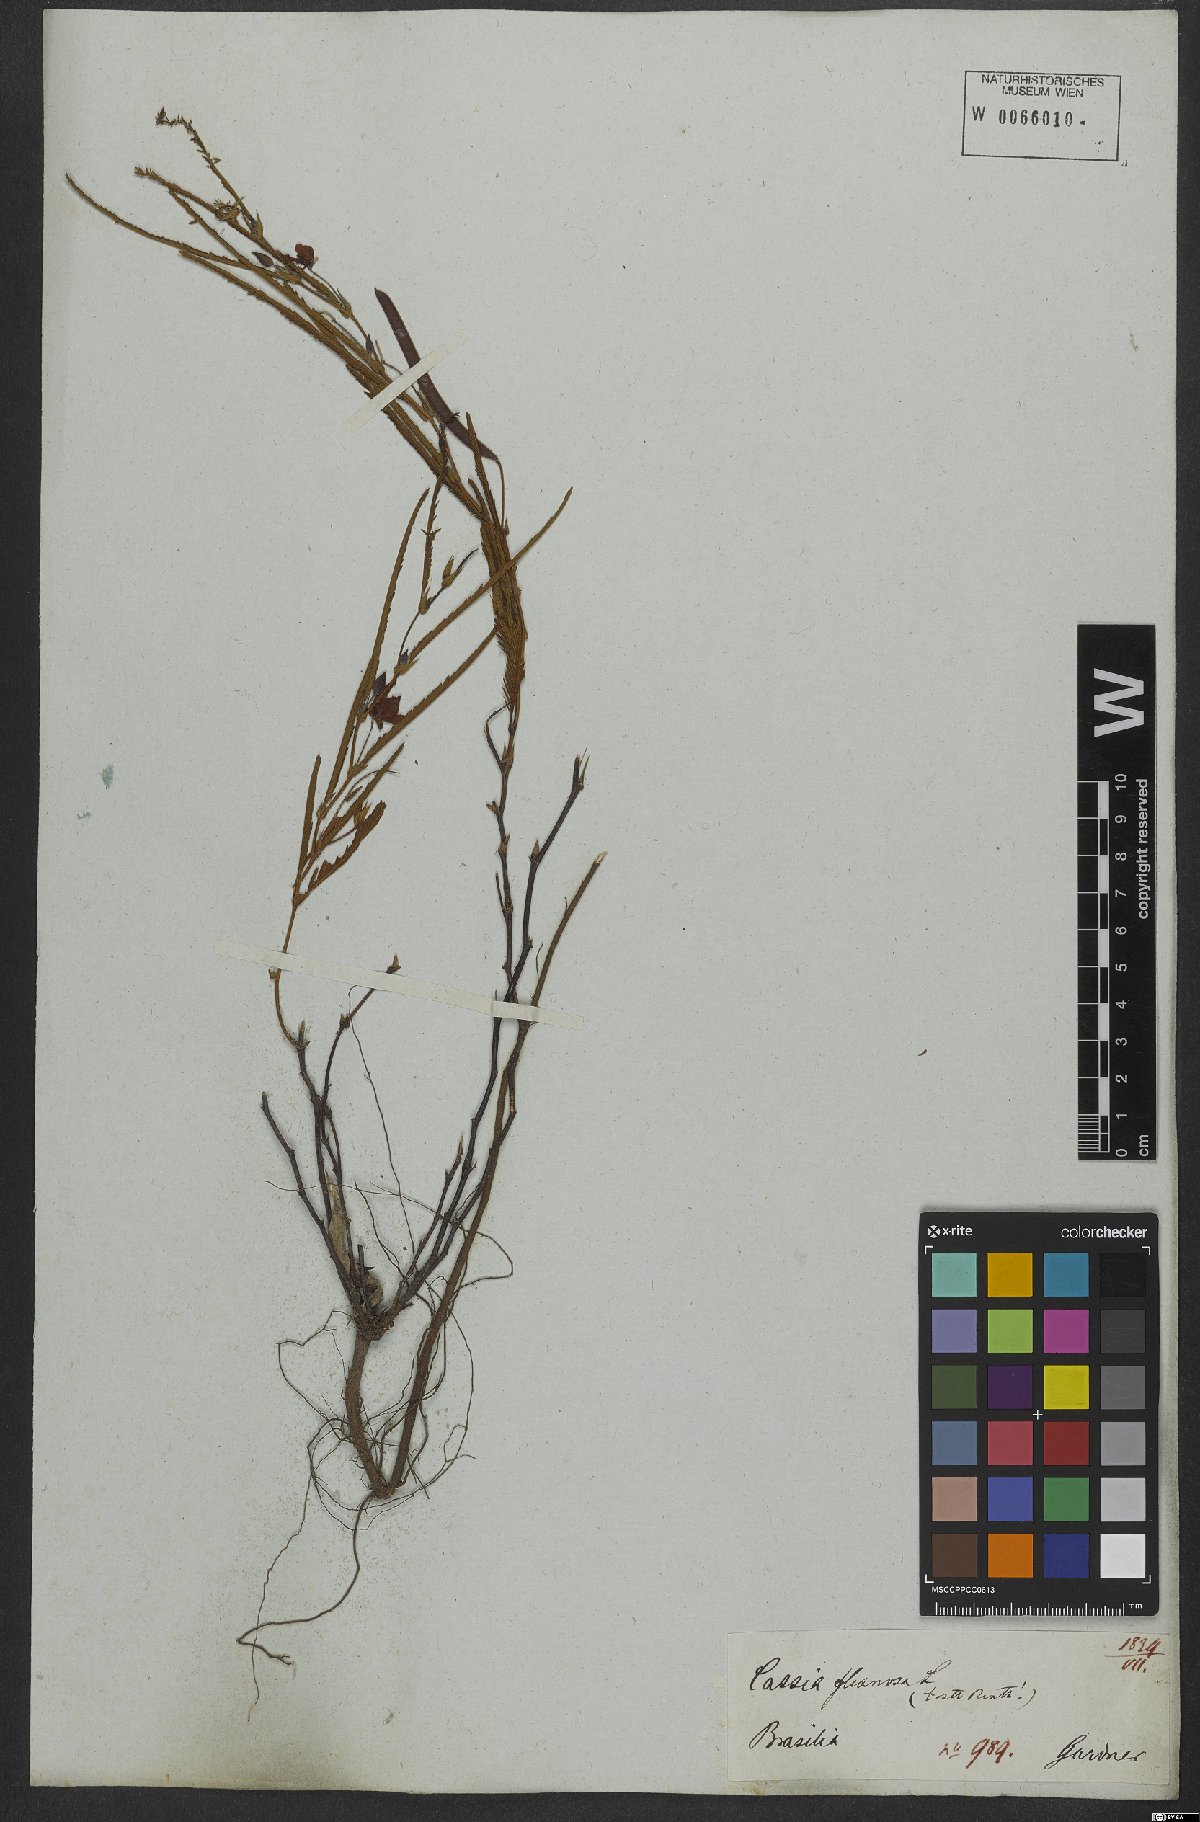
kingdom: Plantae
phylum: Tracheophyta
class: Magnoliopsida
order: Fabales
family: Fabaceae
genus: Chamaecrista
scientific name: Chamaecrista flexuosa
